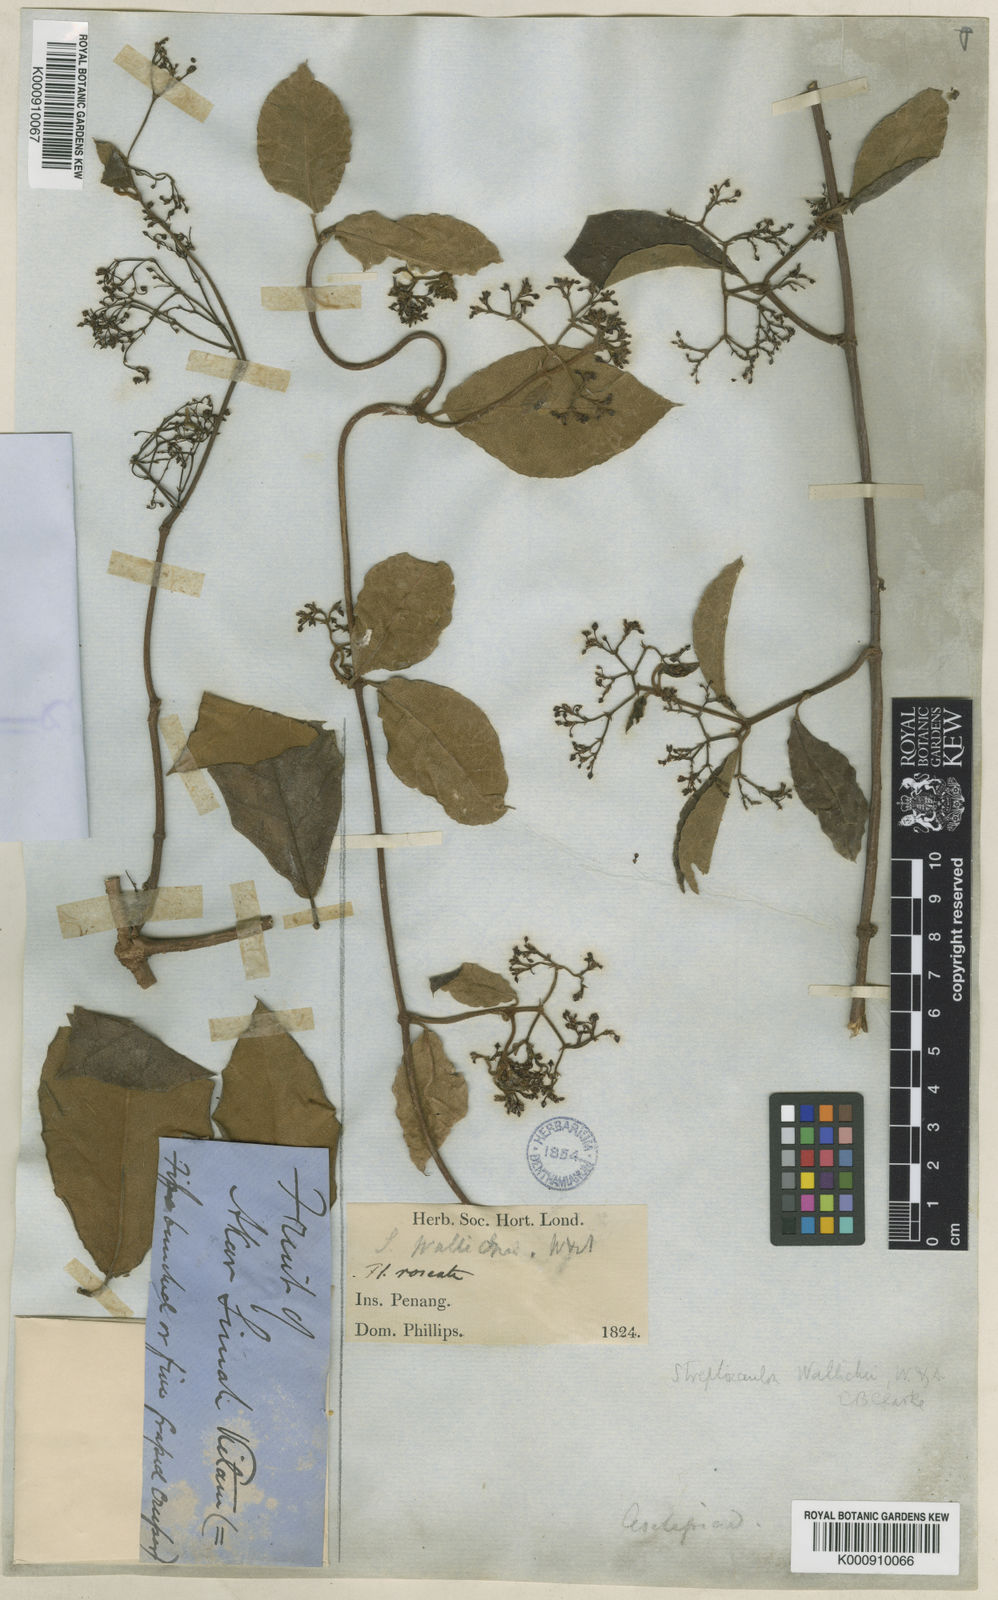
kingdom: Plantae
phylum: Tracheophyta
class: Magnoliopsida
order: Gentianales
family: Apocynaceae
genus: Streptocaulon
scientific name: Streptocaulon wallichii
